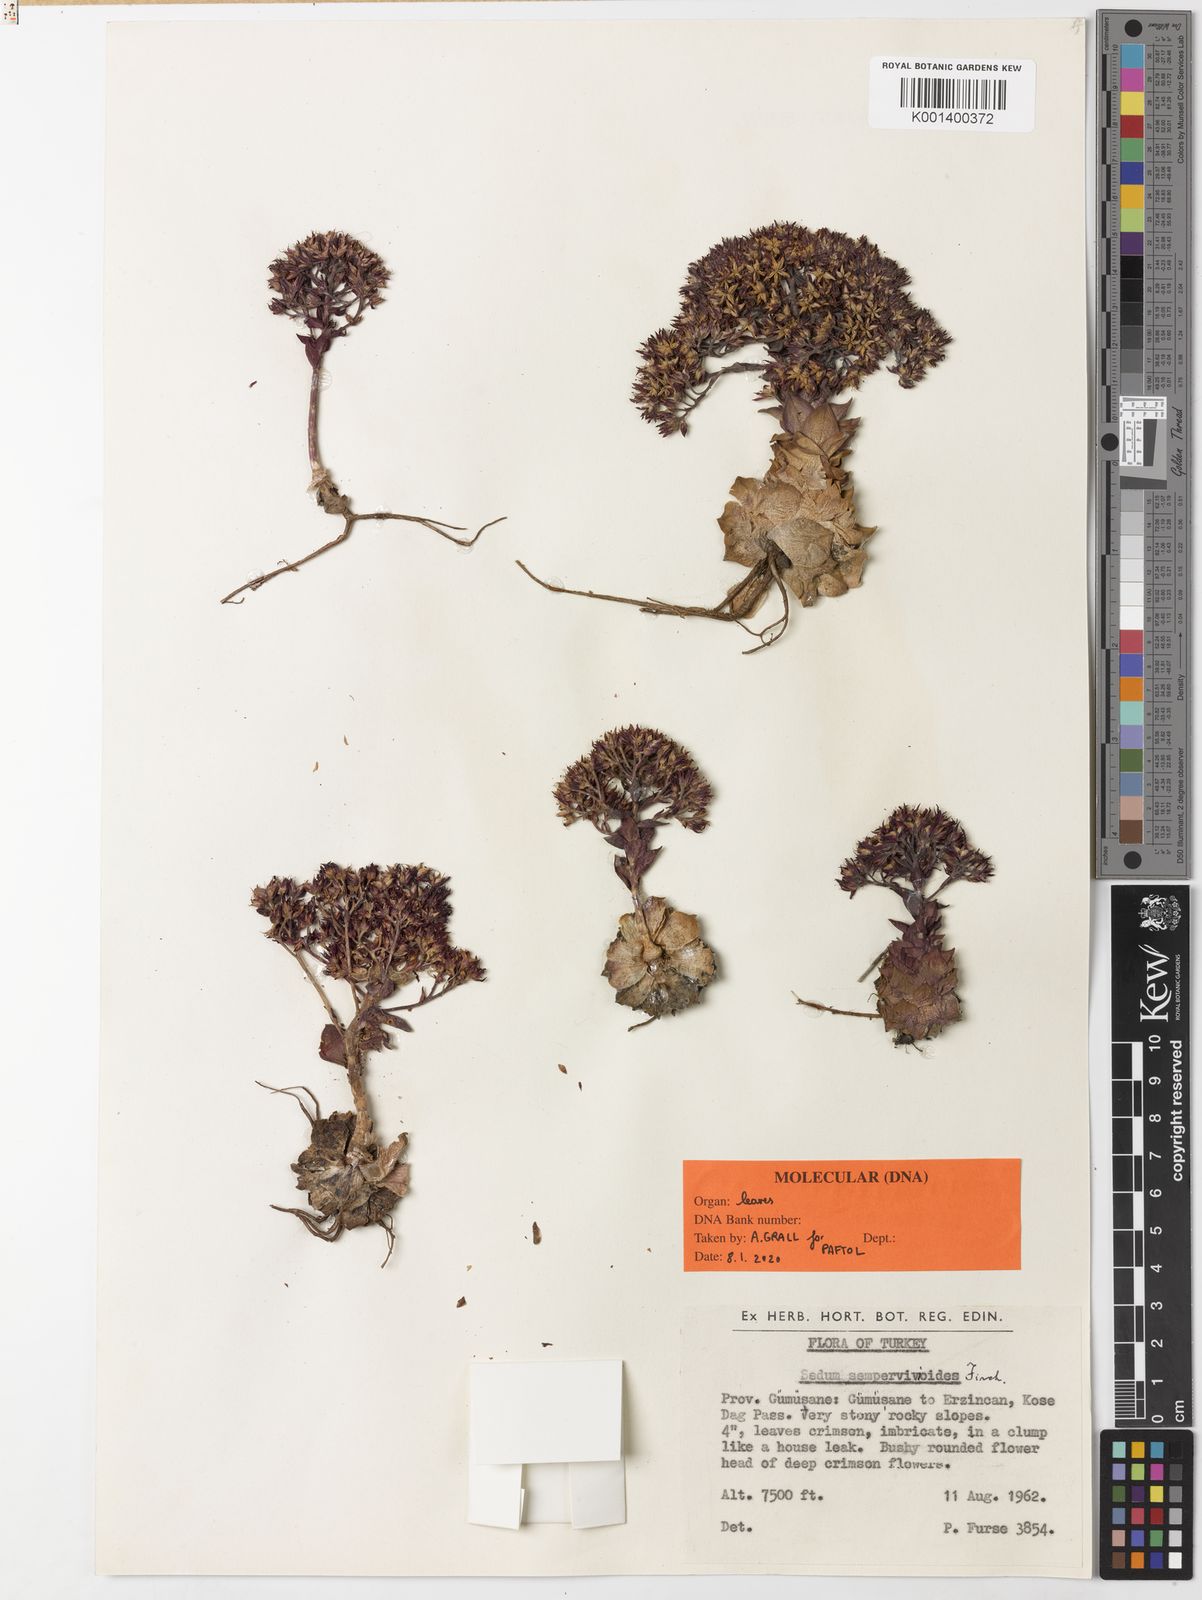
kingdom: Plantae
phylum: Tracheophyta
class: Magnoliopsida
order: Saxifragales
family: Crassulaceae
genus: Prometheum
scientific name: Prometheum sempervivoides
